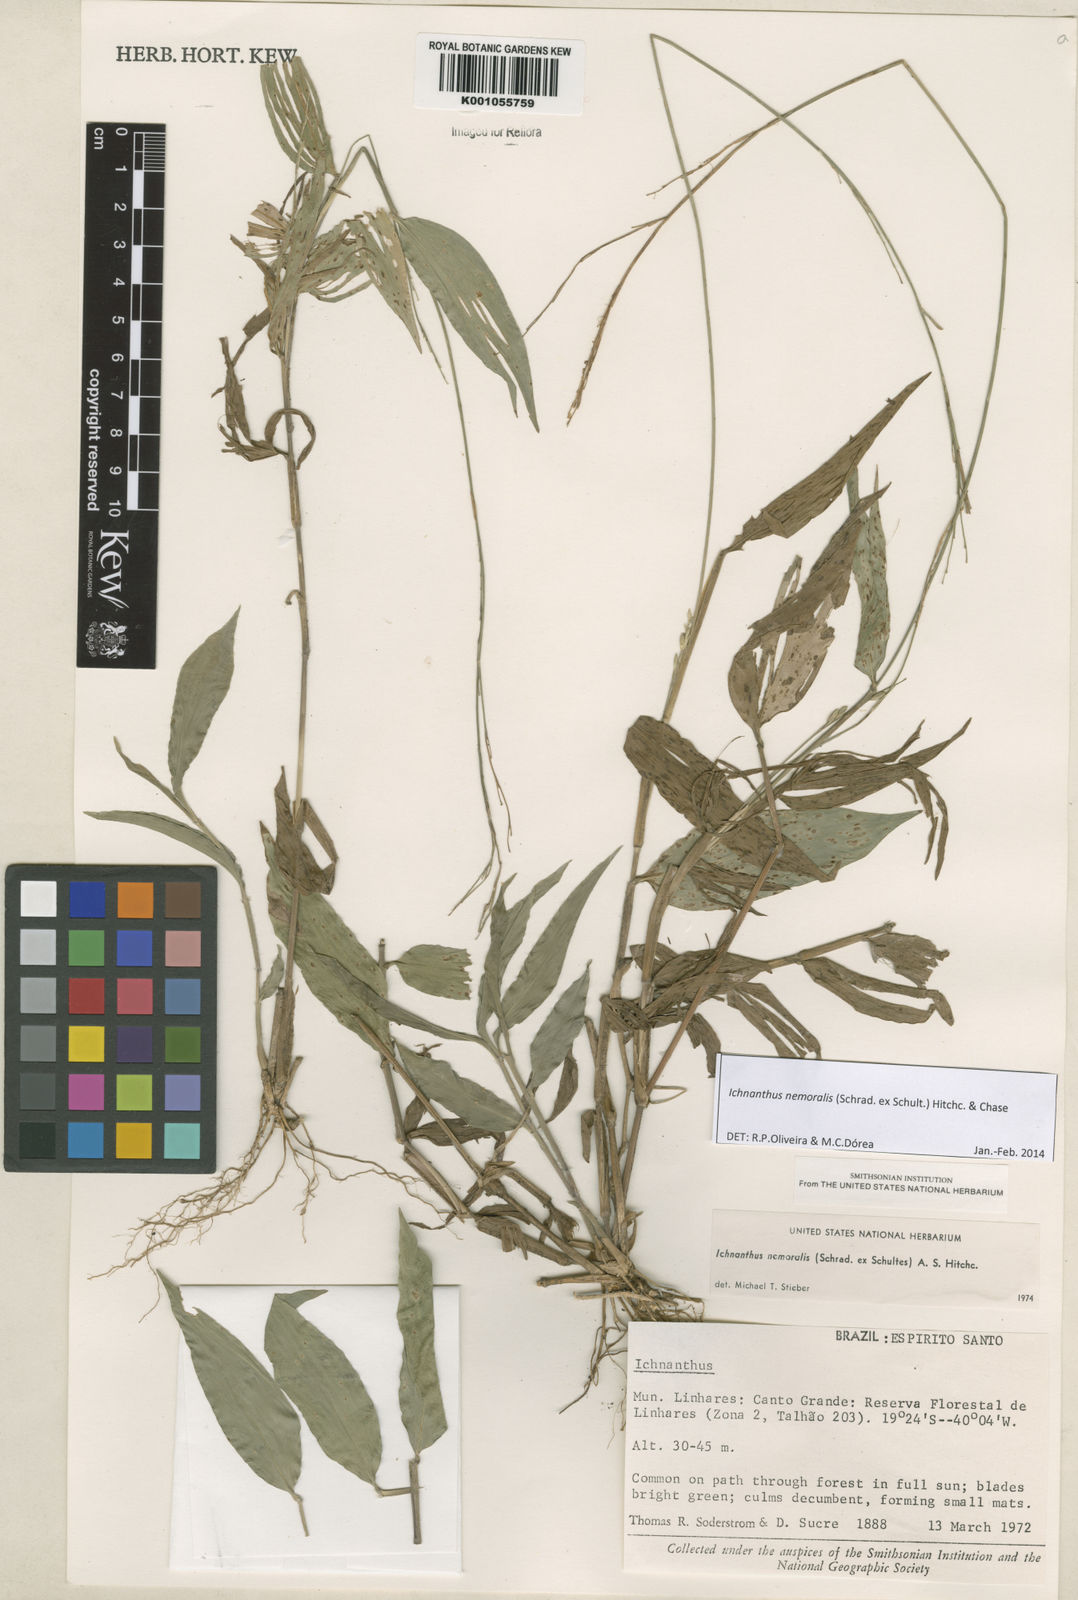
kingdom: Plantae
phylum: Tracheophyta
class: Liliopsida
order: Poales
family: Poaceae
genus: Ichnanthus
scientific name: Ichnanthus nemoralis
